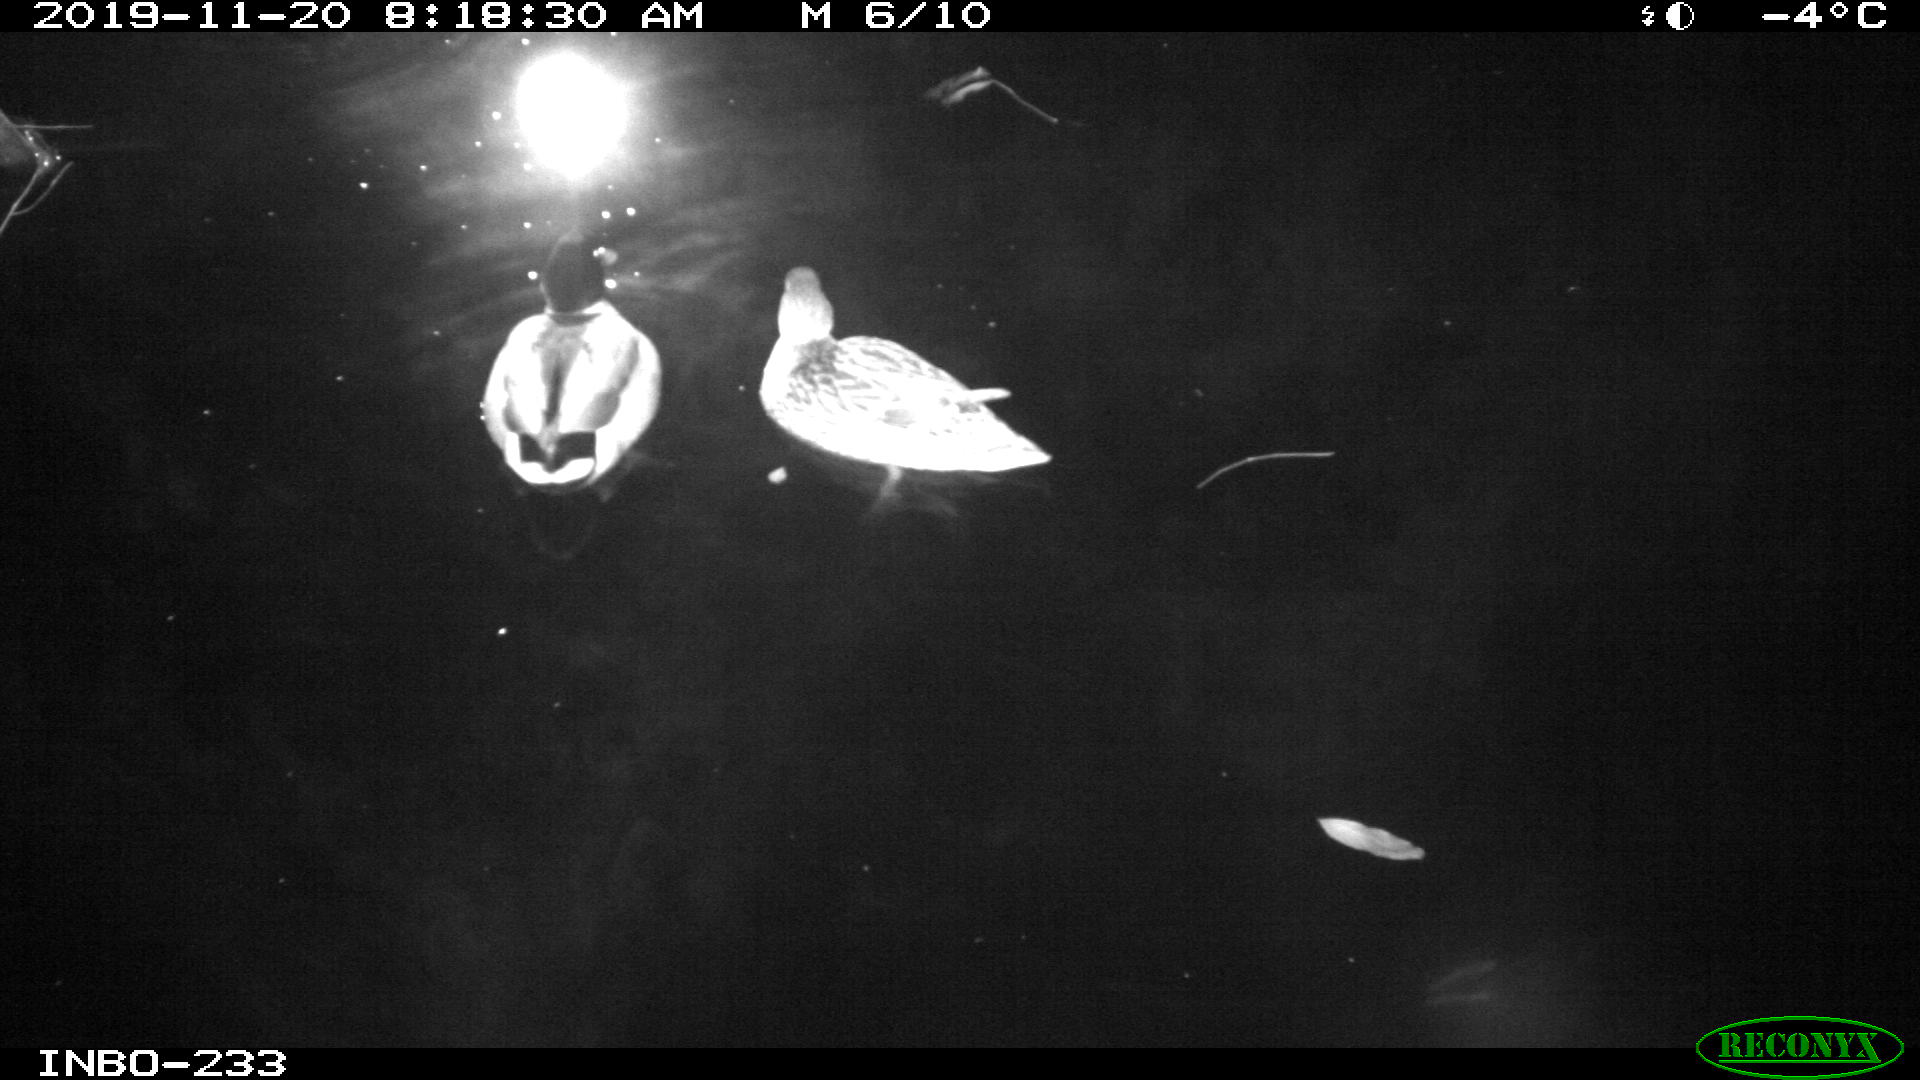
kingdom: Animalia
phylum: Chordata
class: Aves
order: Anseriformes
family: Anatidae
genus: Anas
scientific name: Anas platyrhynchos
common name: Mallard
